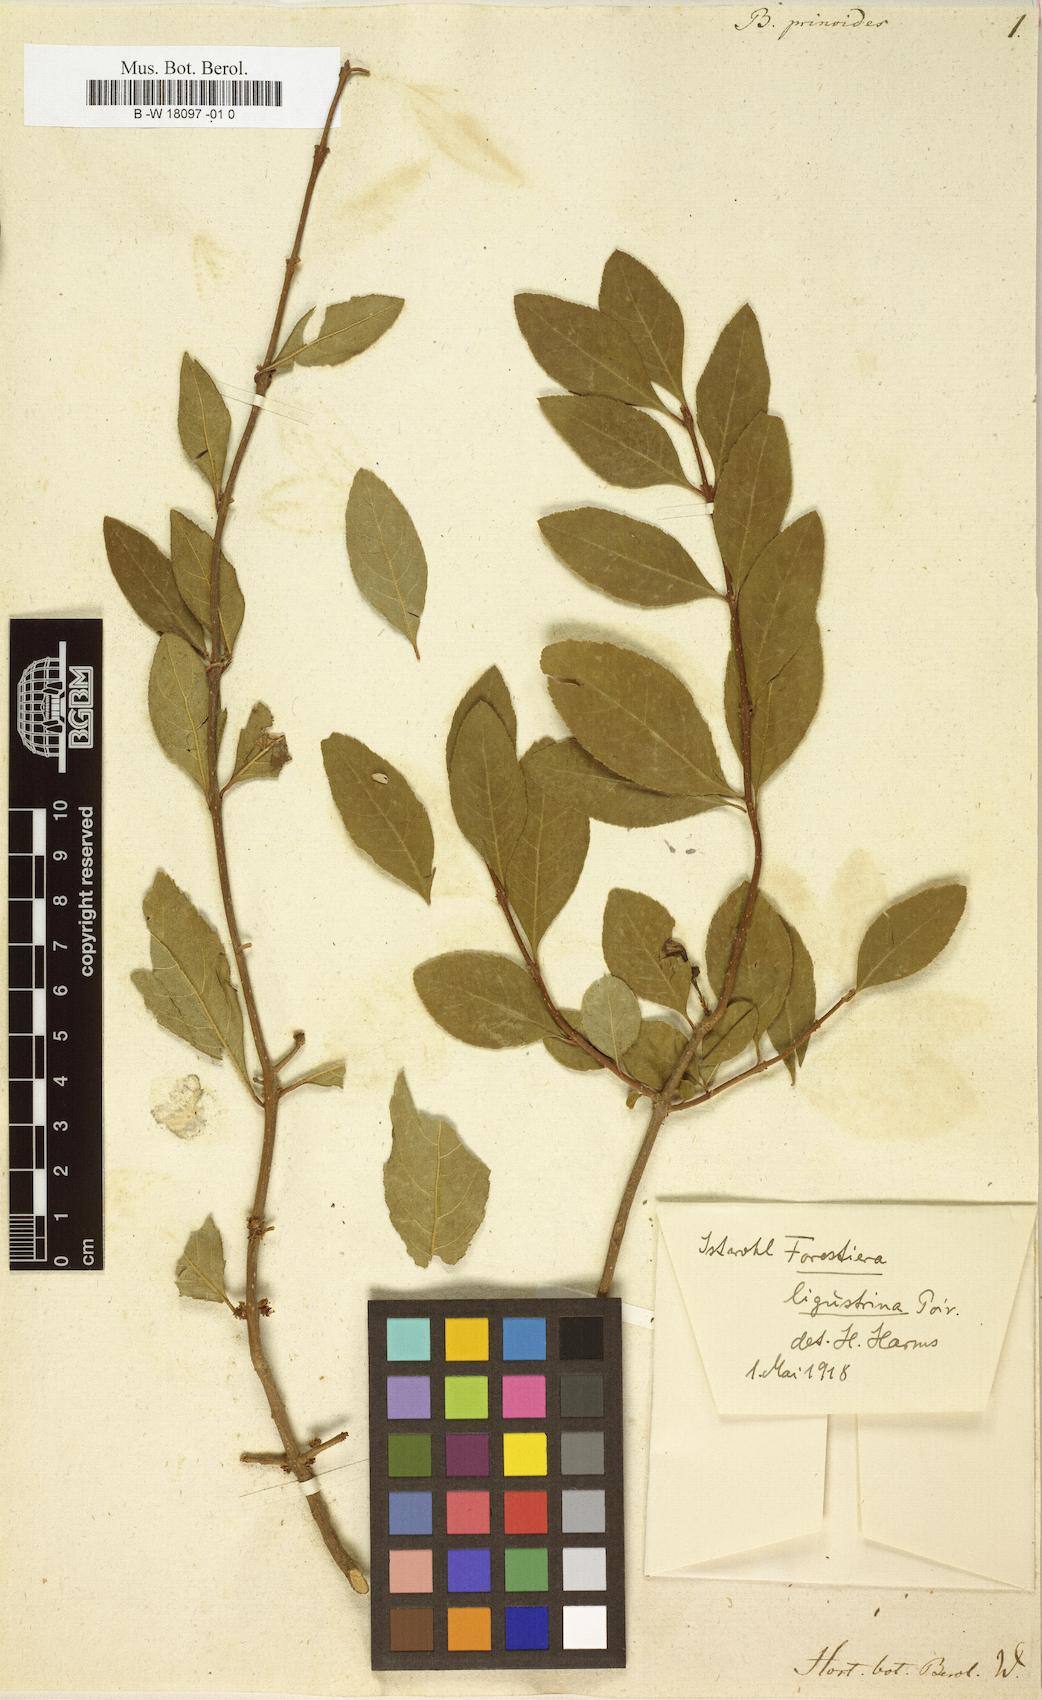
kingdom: Plantae
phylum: Tracheophyta
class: Magnoliopsida
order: Lamiales
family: Oleaceae
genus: Forestiera
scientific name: Forestiera acuminata
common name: Swamp-privet
